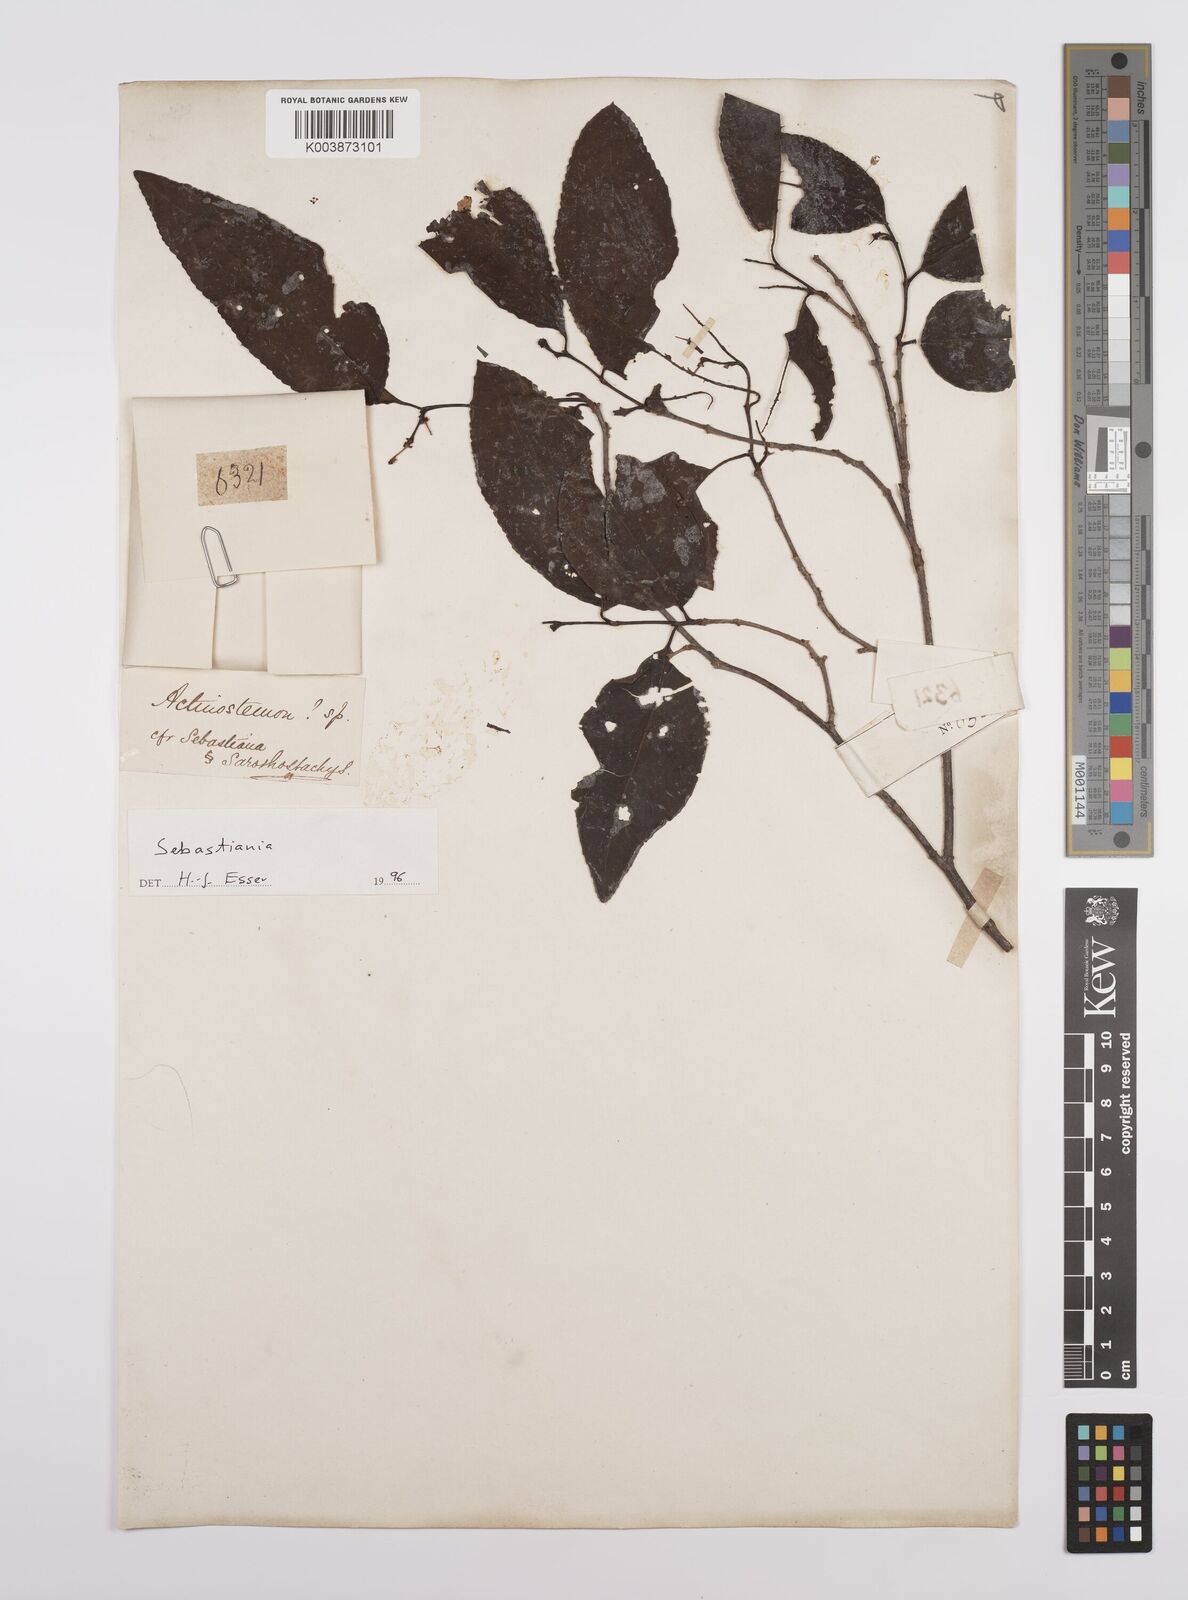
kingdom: Plantae
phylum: Tracheophyta
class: Magnoliopsida
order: Malpighiales
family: Euphorbiaceae
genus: Sebastiania
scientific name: Sebastiania
